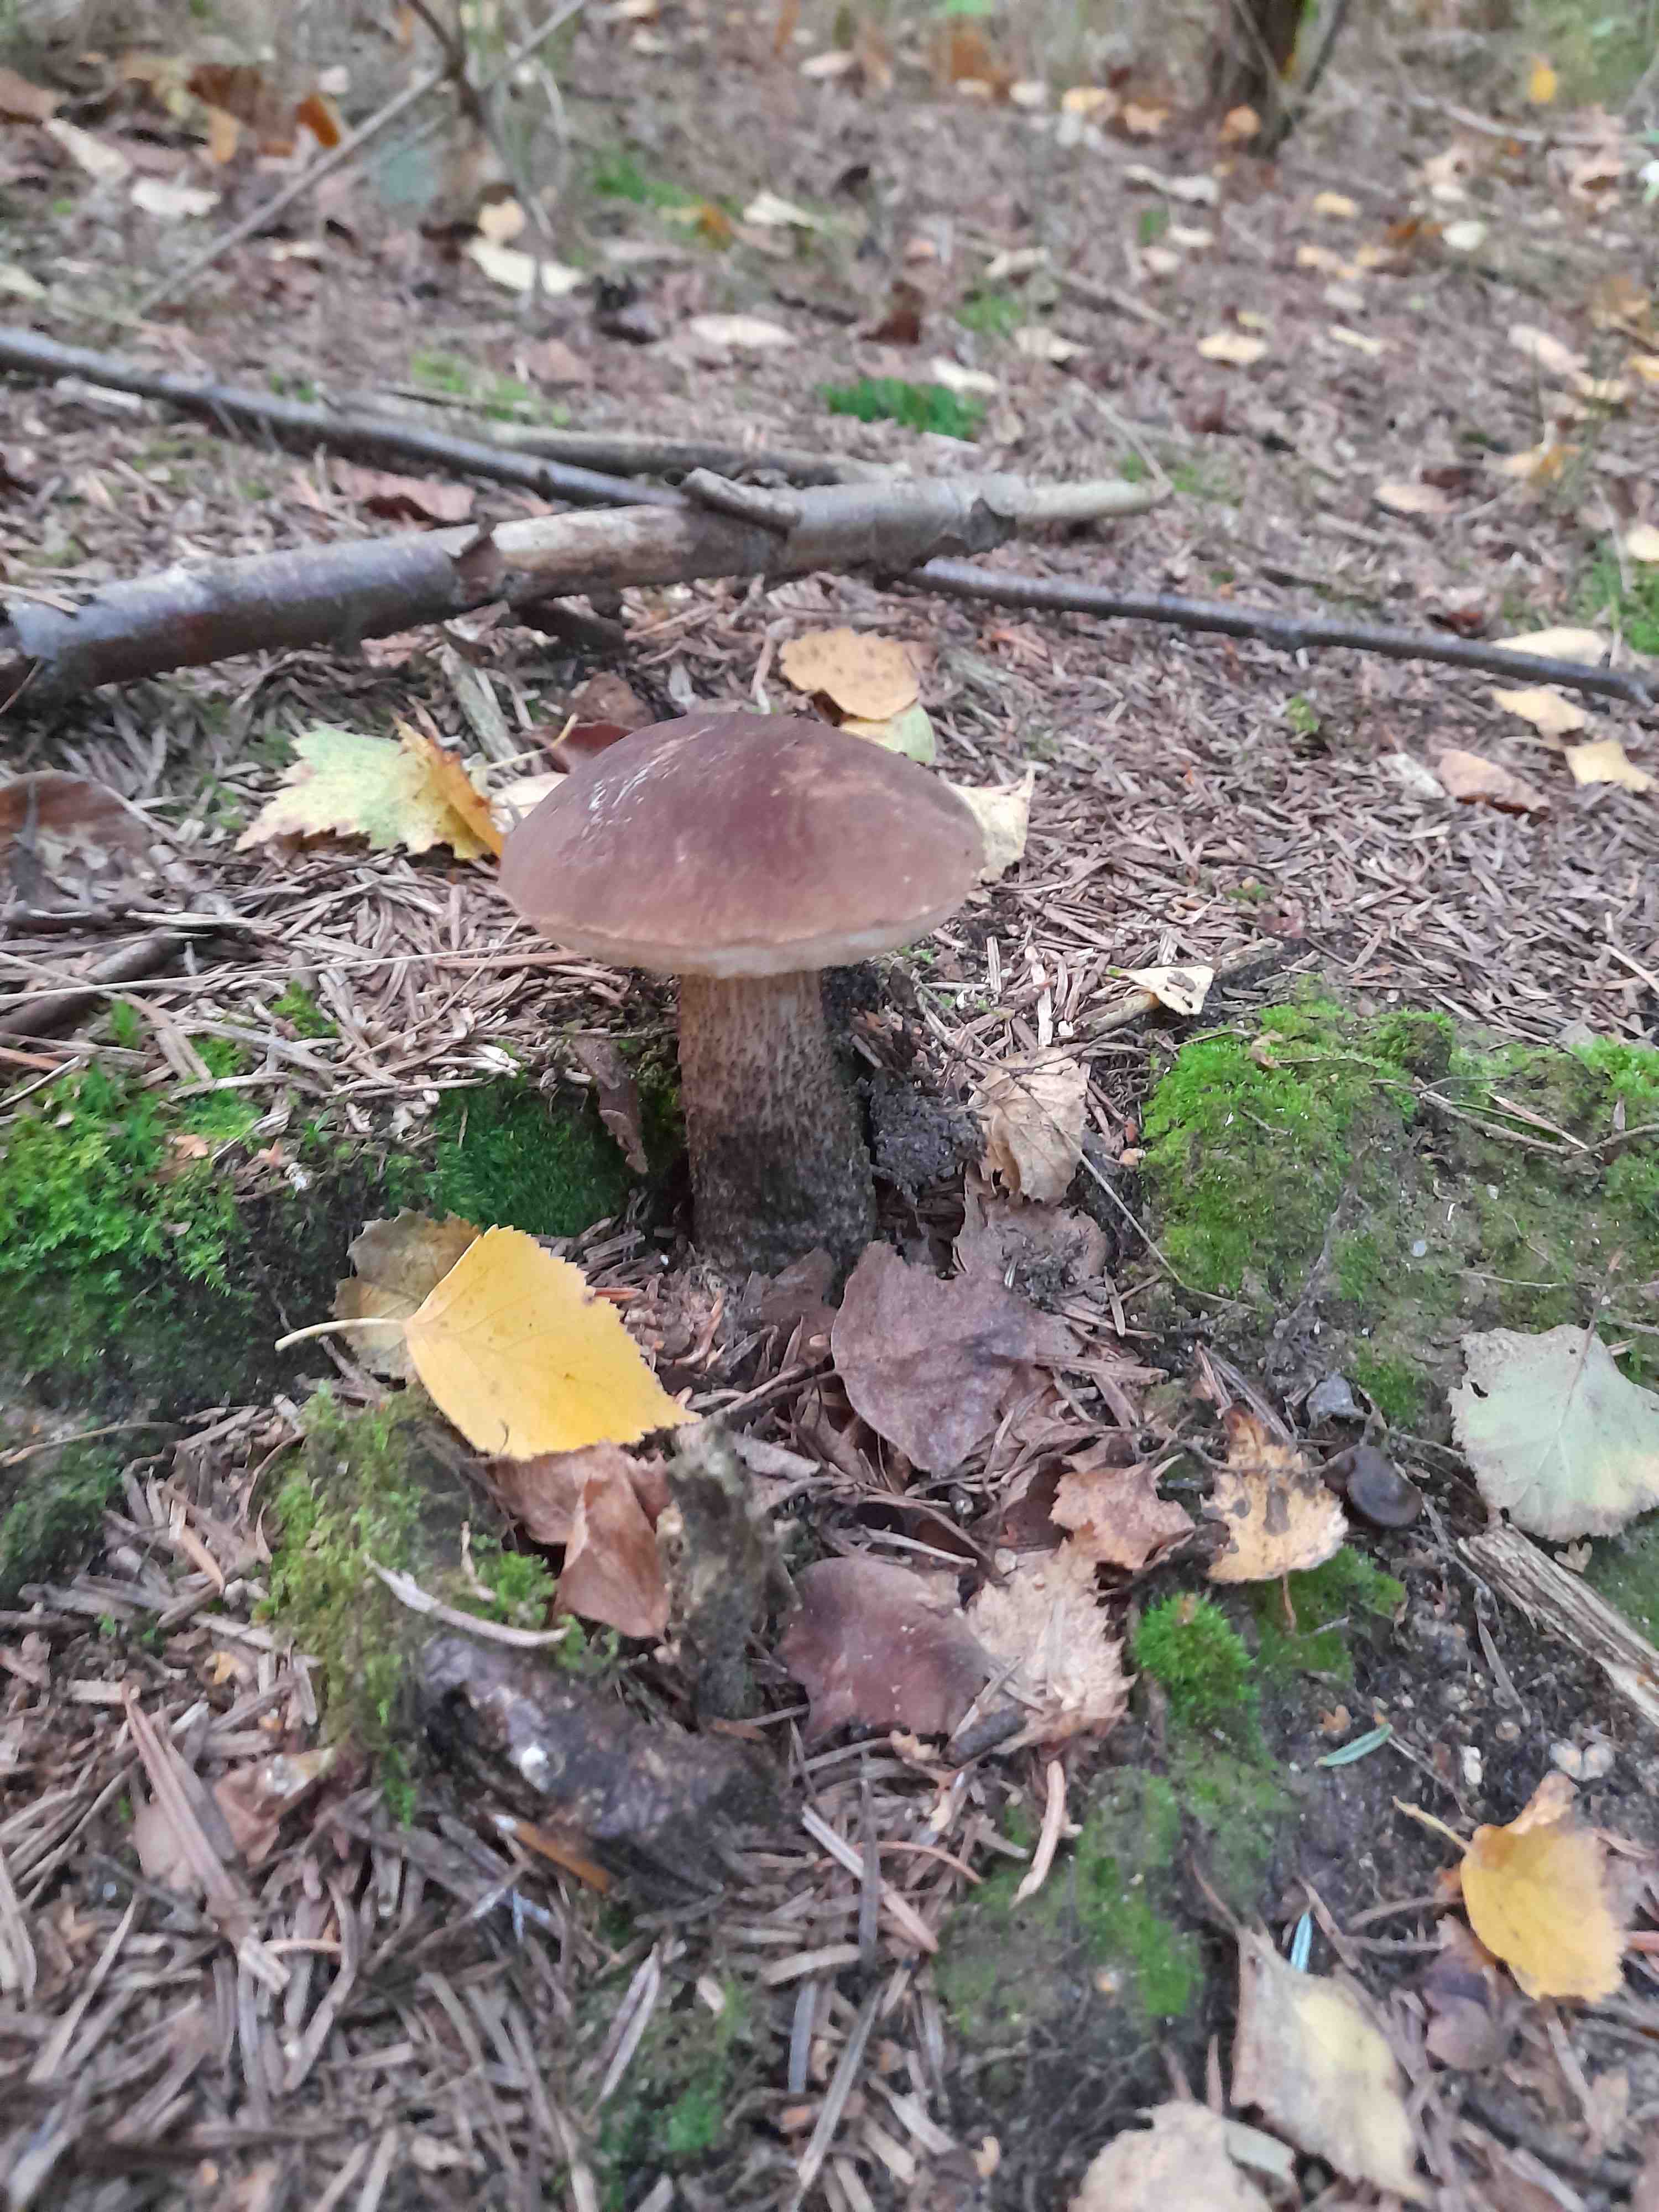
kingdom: Fungi
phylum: Basidiomycota
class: Agaricomycetes
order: Boletales
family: Boletaceae
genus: Leccinum
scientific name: Leccinum scabrum
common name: brun skælrørhat
